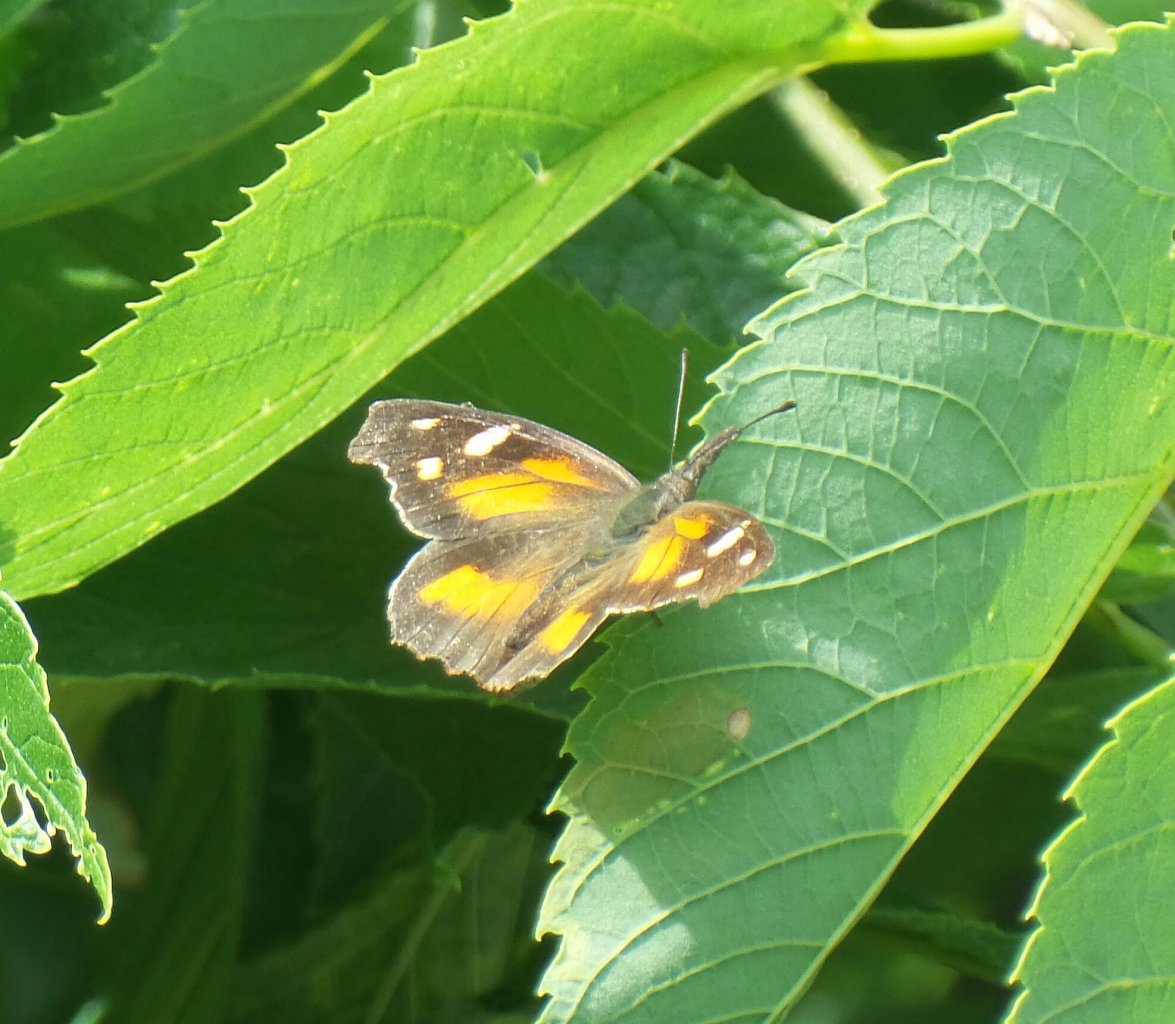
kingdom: Animalia
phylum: Arthropoda
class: Insecta
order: Lepidoptera
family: Nymphalidae
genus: Libytheana
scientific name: Libytheana carinenta
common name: American Snout
